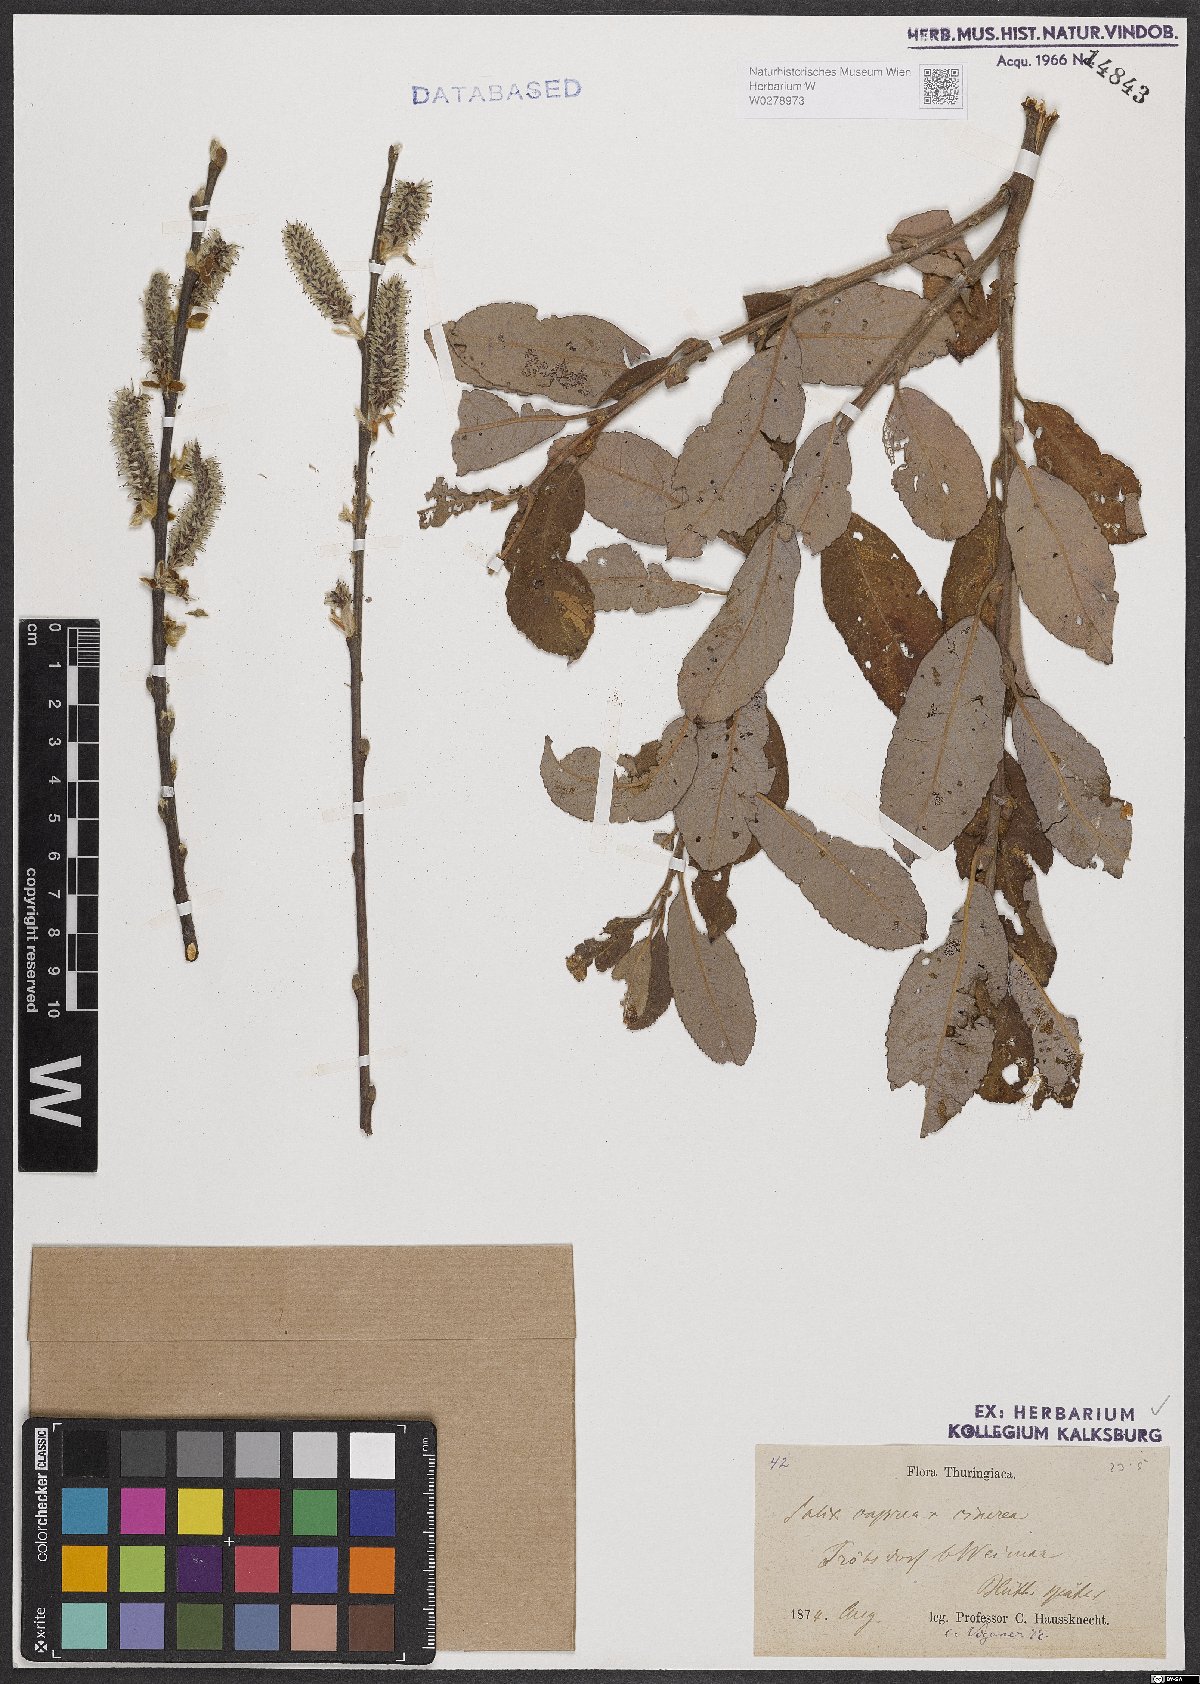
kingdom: Plantae
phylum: Tracheophyta
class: Magnoliopsida
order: Malpighiales
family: Salicaceae
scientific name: Salicaceae
